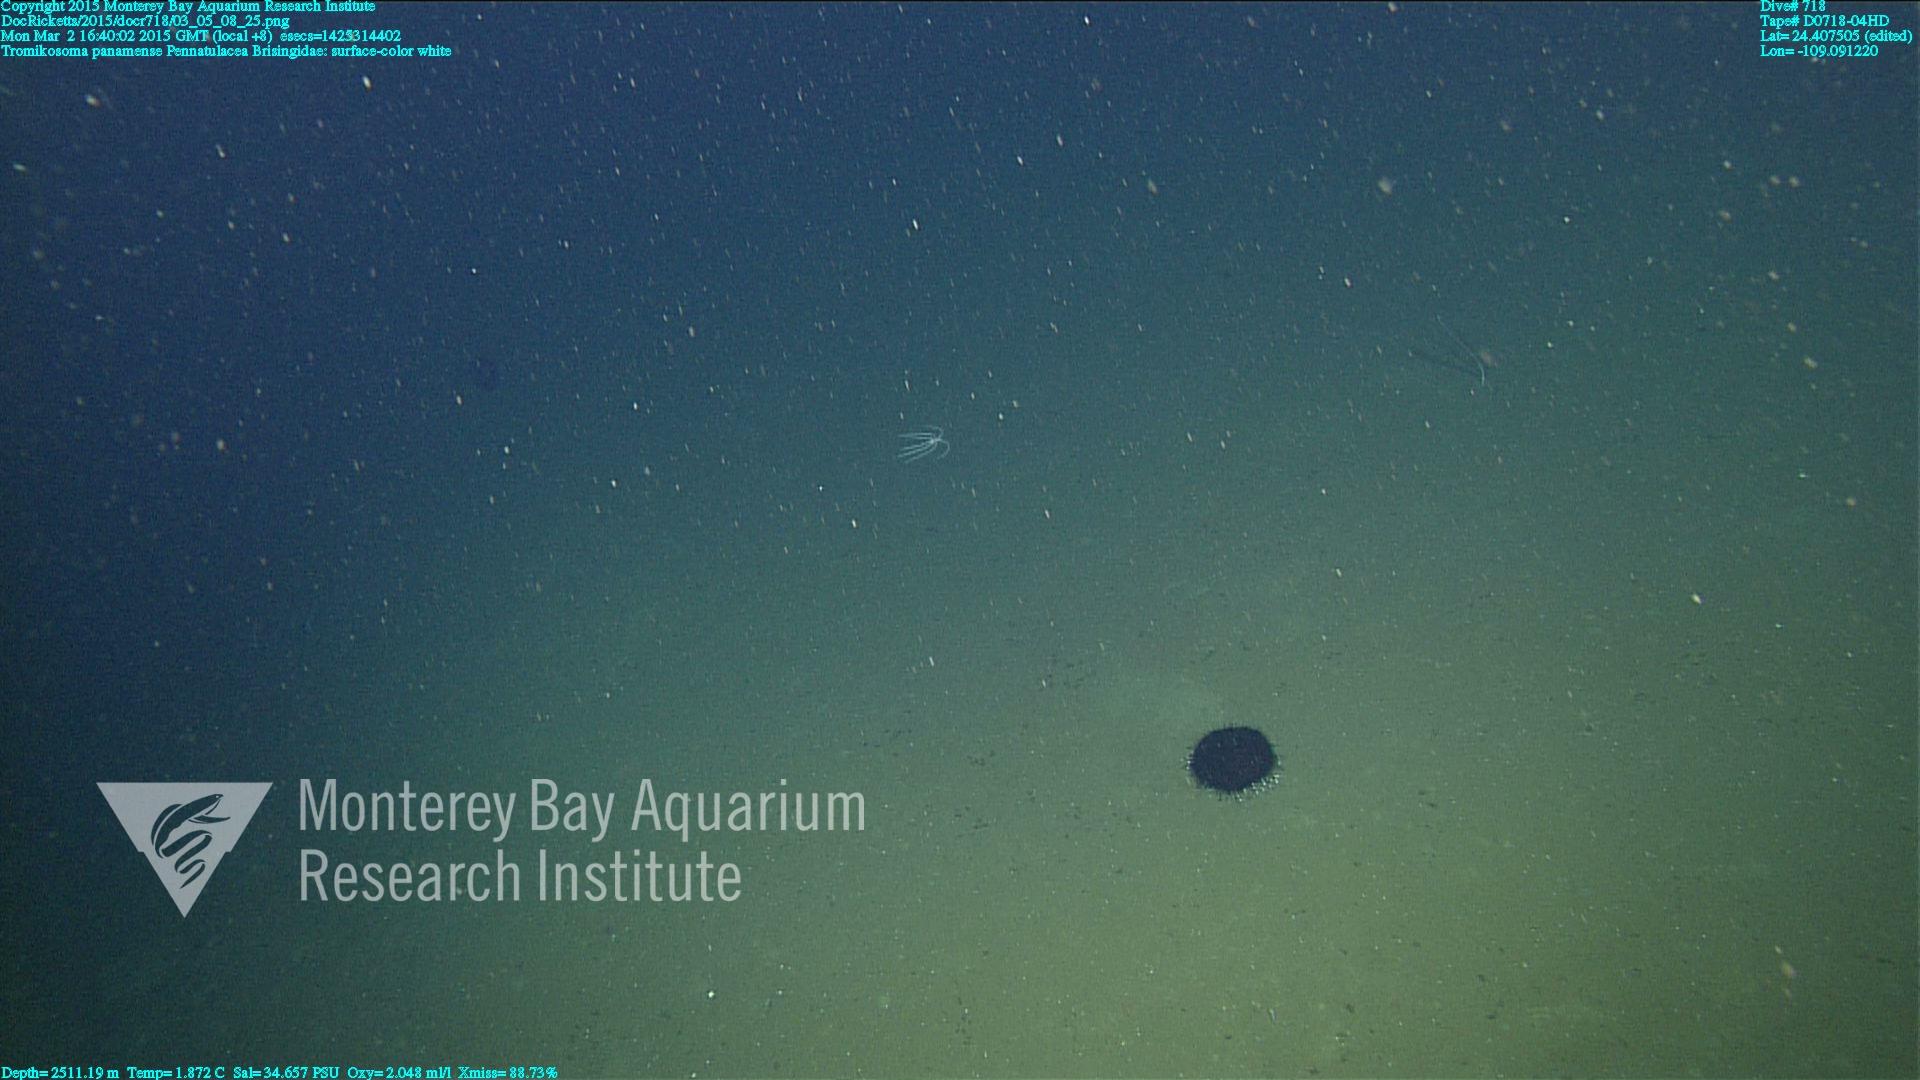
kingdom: Animalia
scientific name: Animalia
